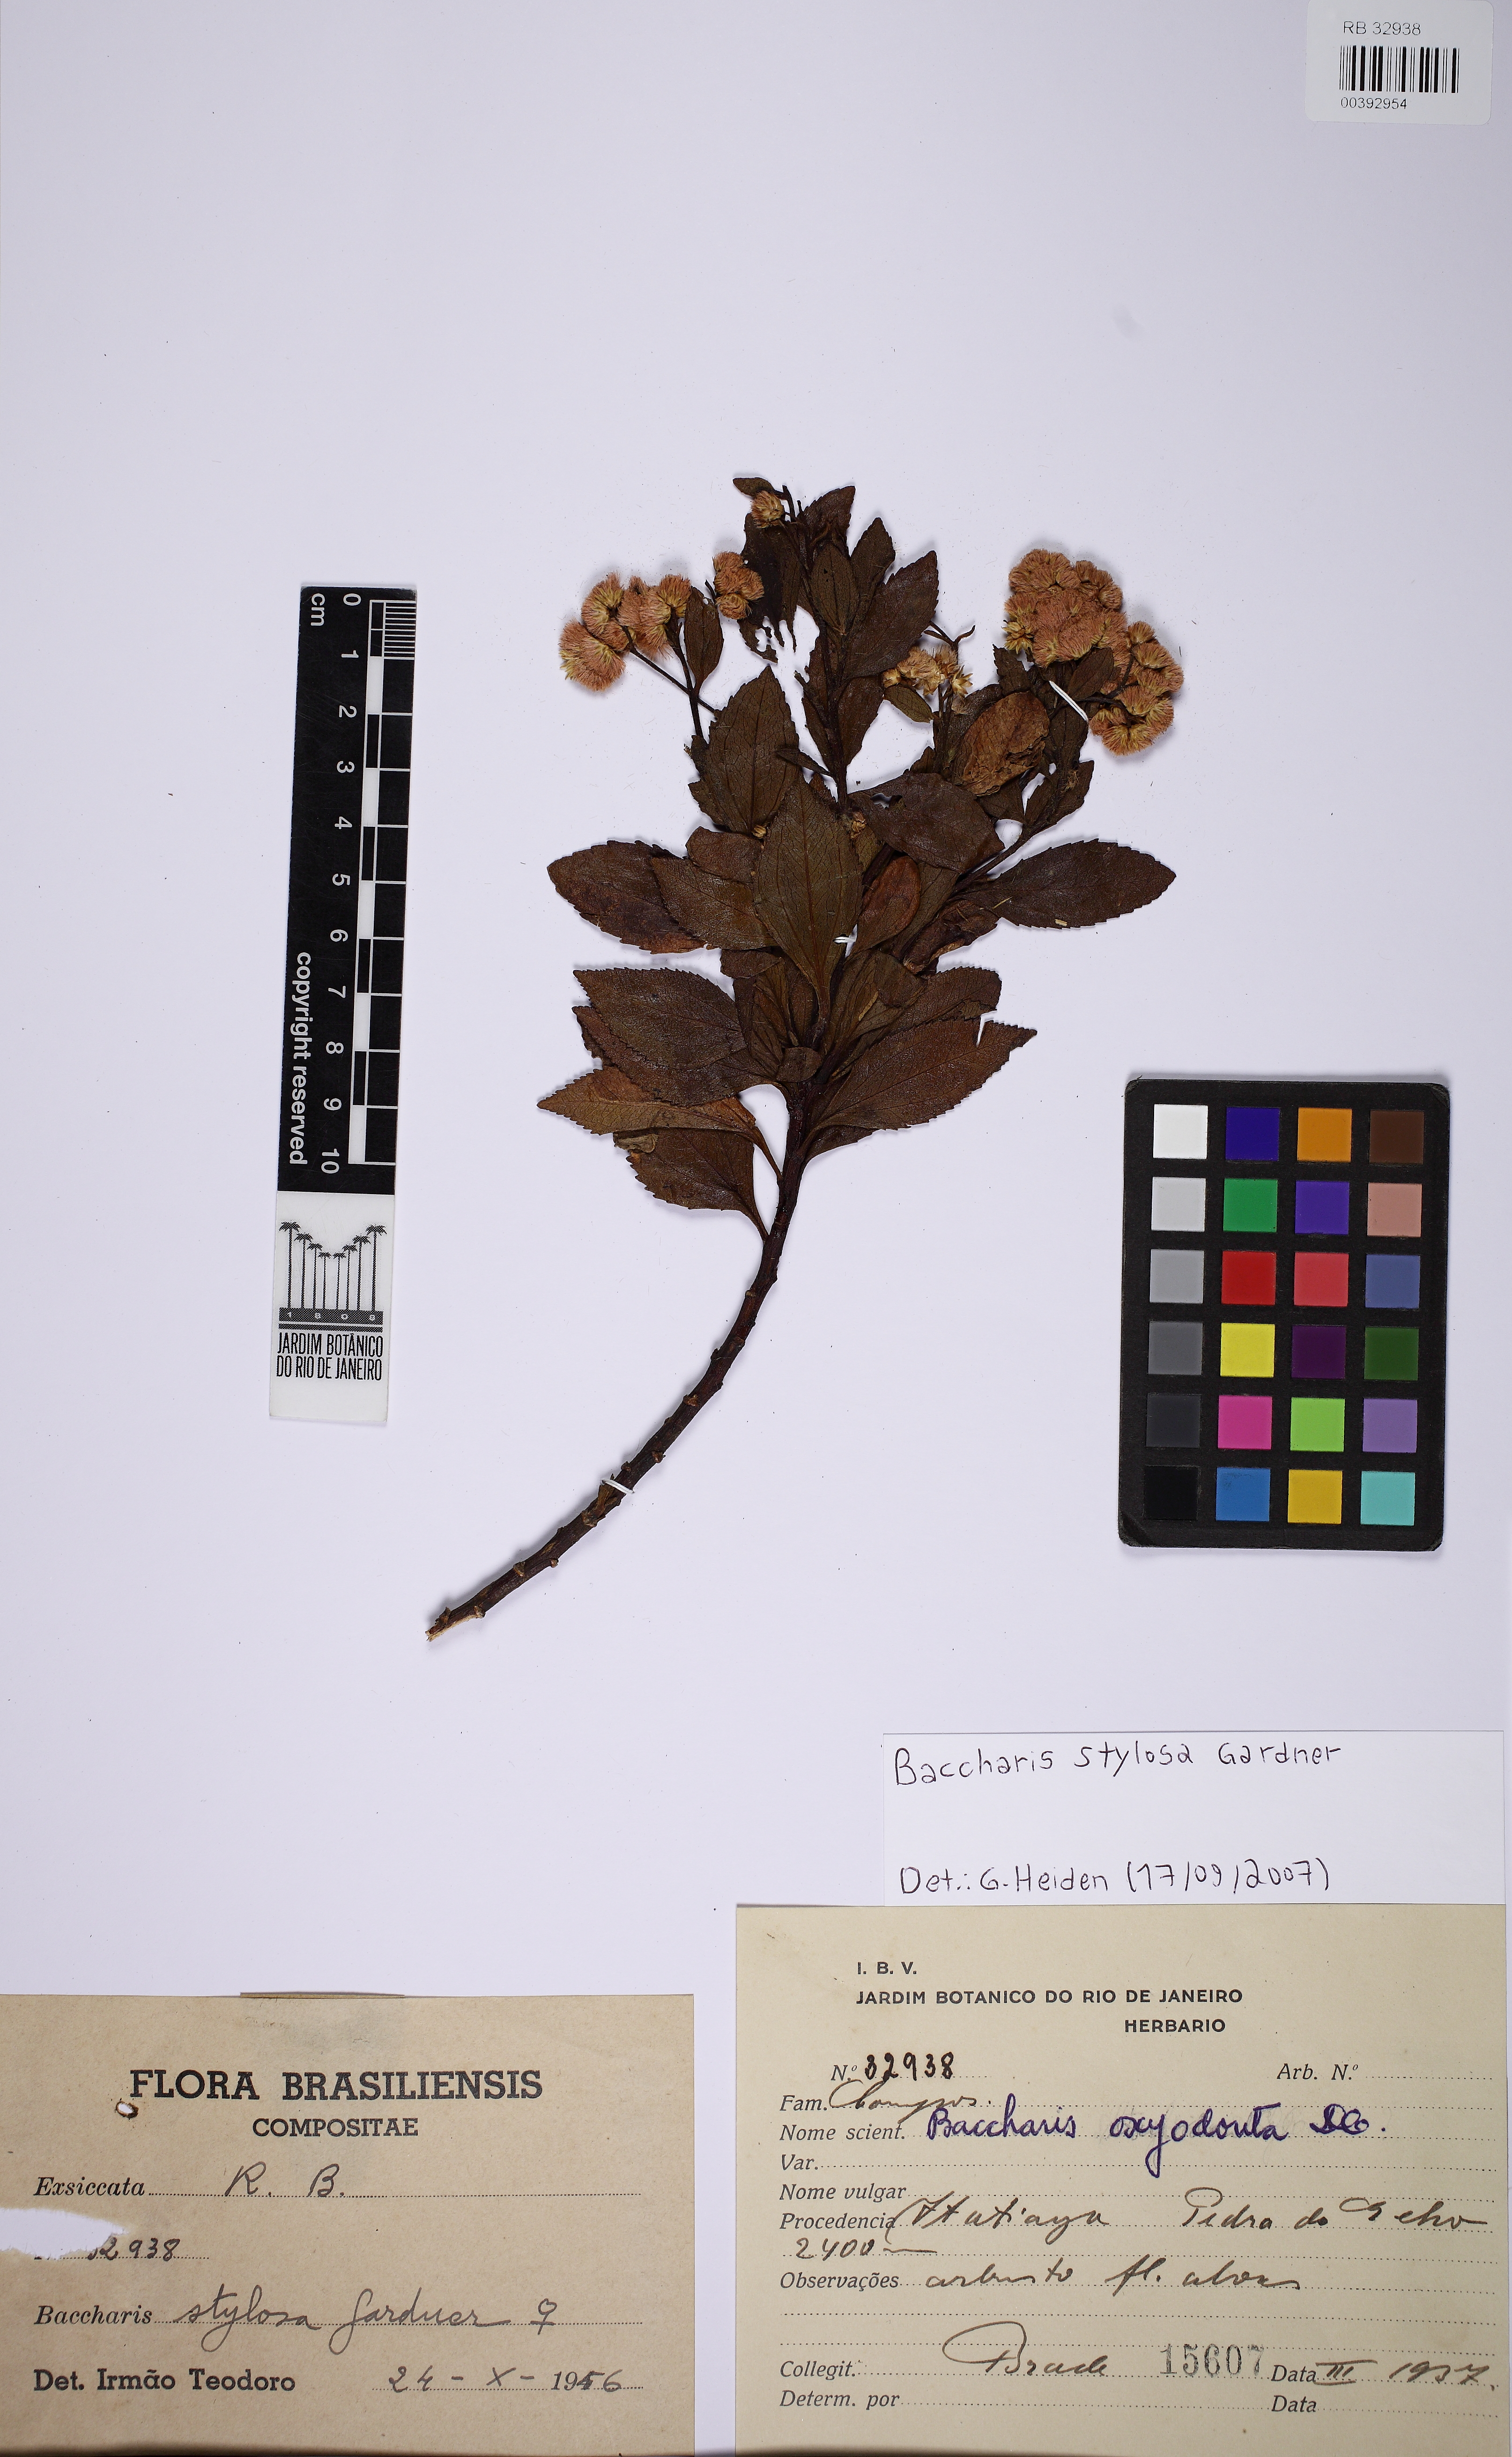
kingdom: Plantae
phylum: Tracheophyta
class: Magnoliopsida
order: Asterales
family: Asteraceae
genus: Baccharis
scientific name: Baccharis stylosa
